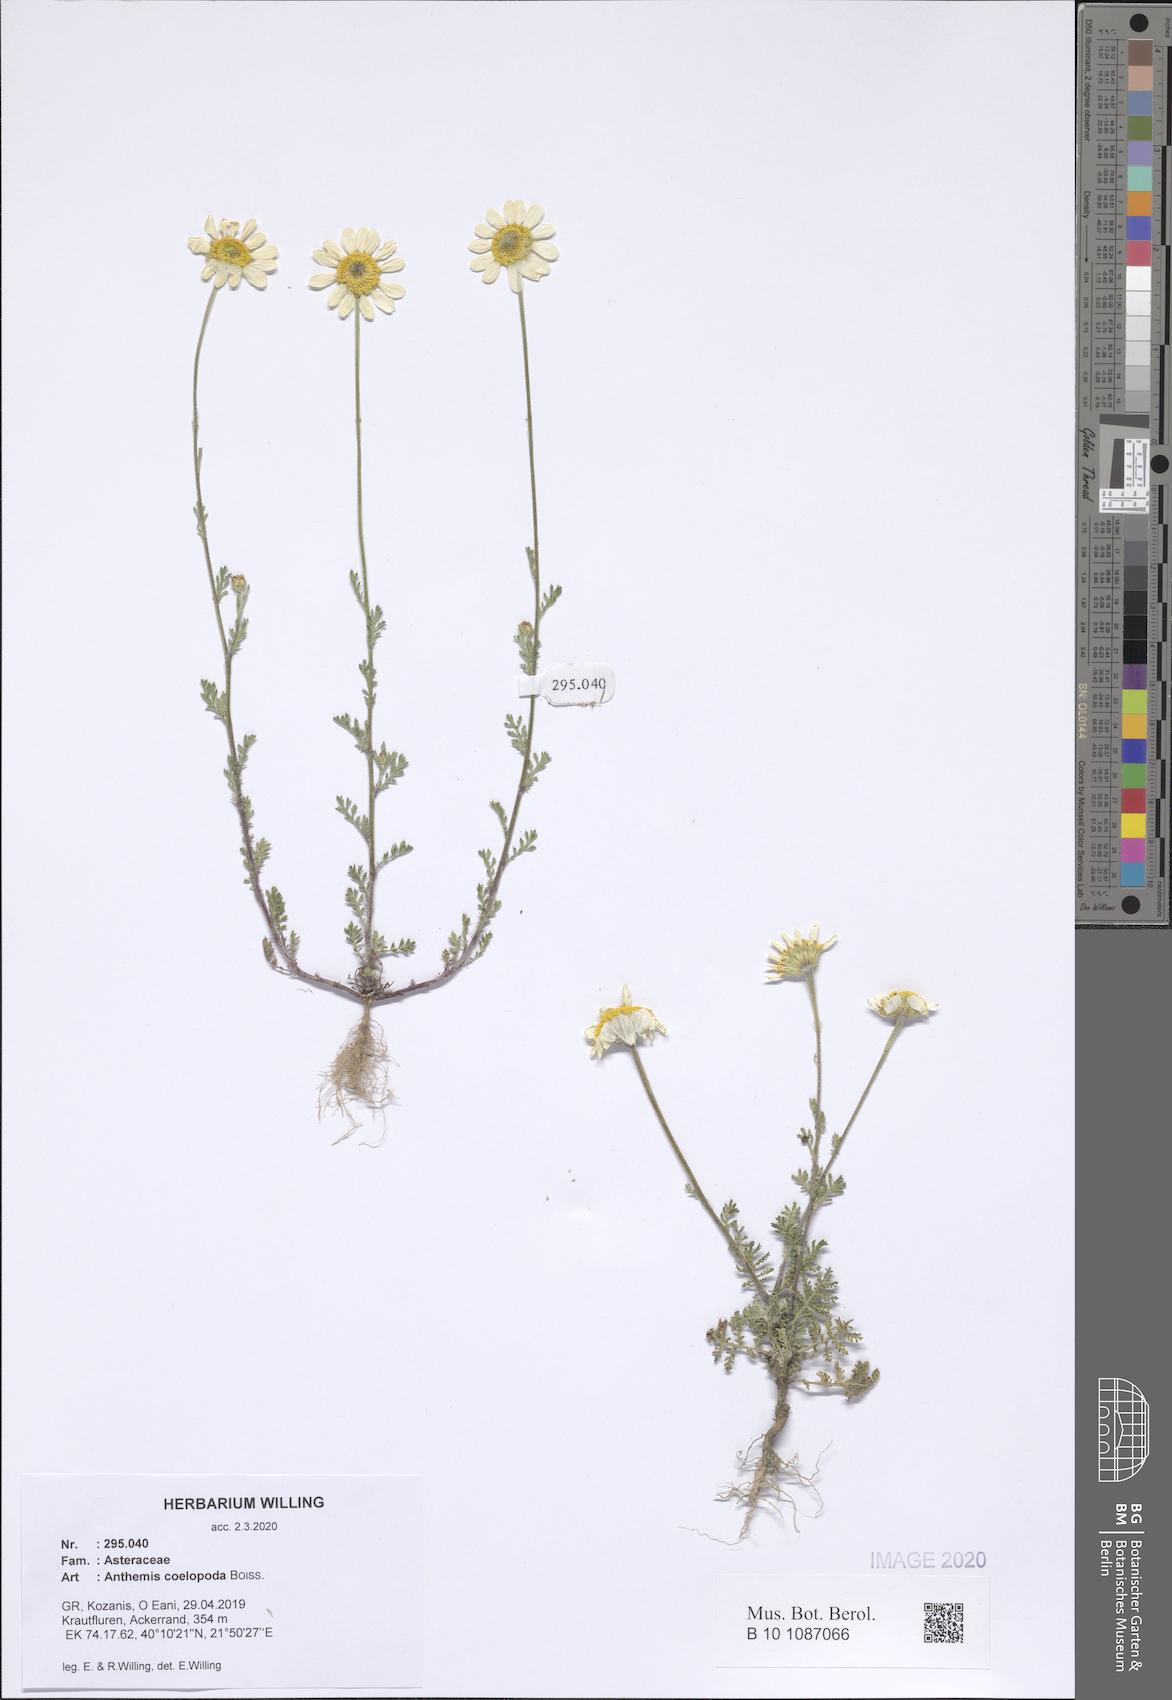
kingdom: Plantae
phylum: Tracheophyta
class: Magnoliopsida
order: Asterales
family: Asteraceae
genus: Cota
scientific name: Cota coelopoda
